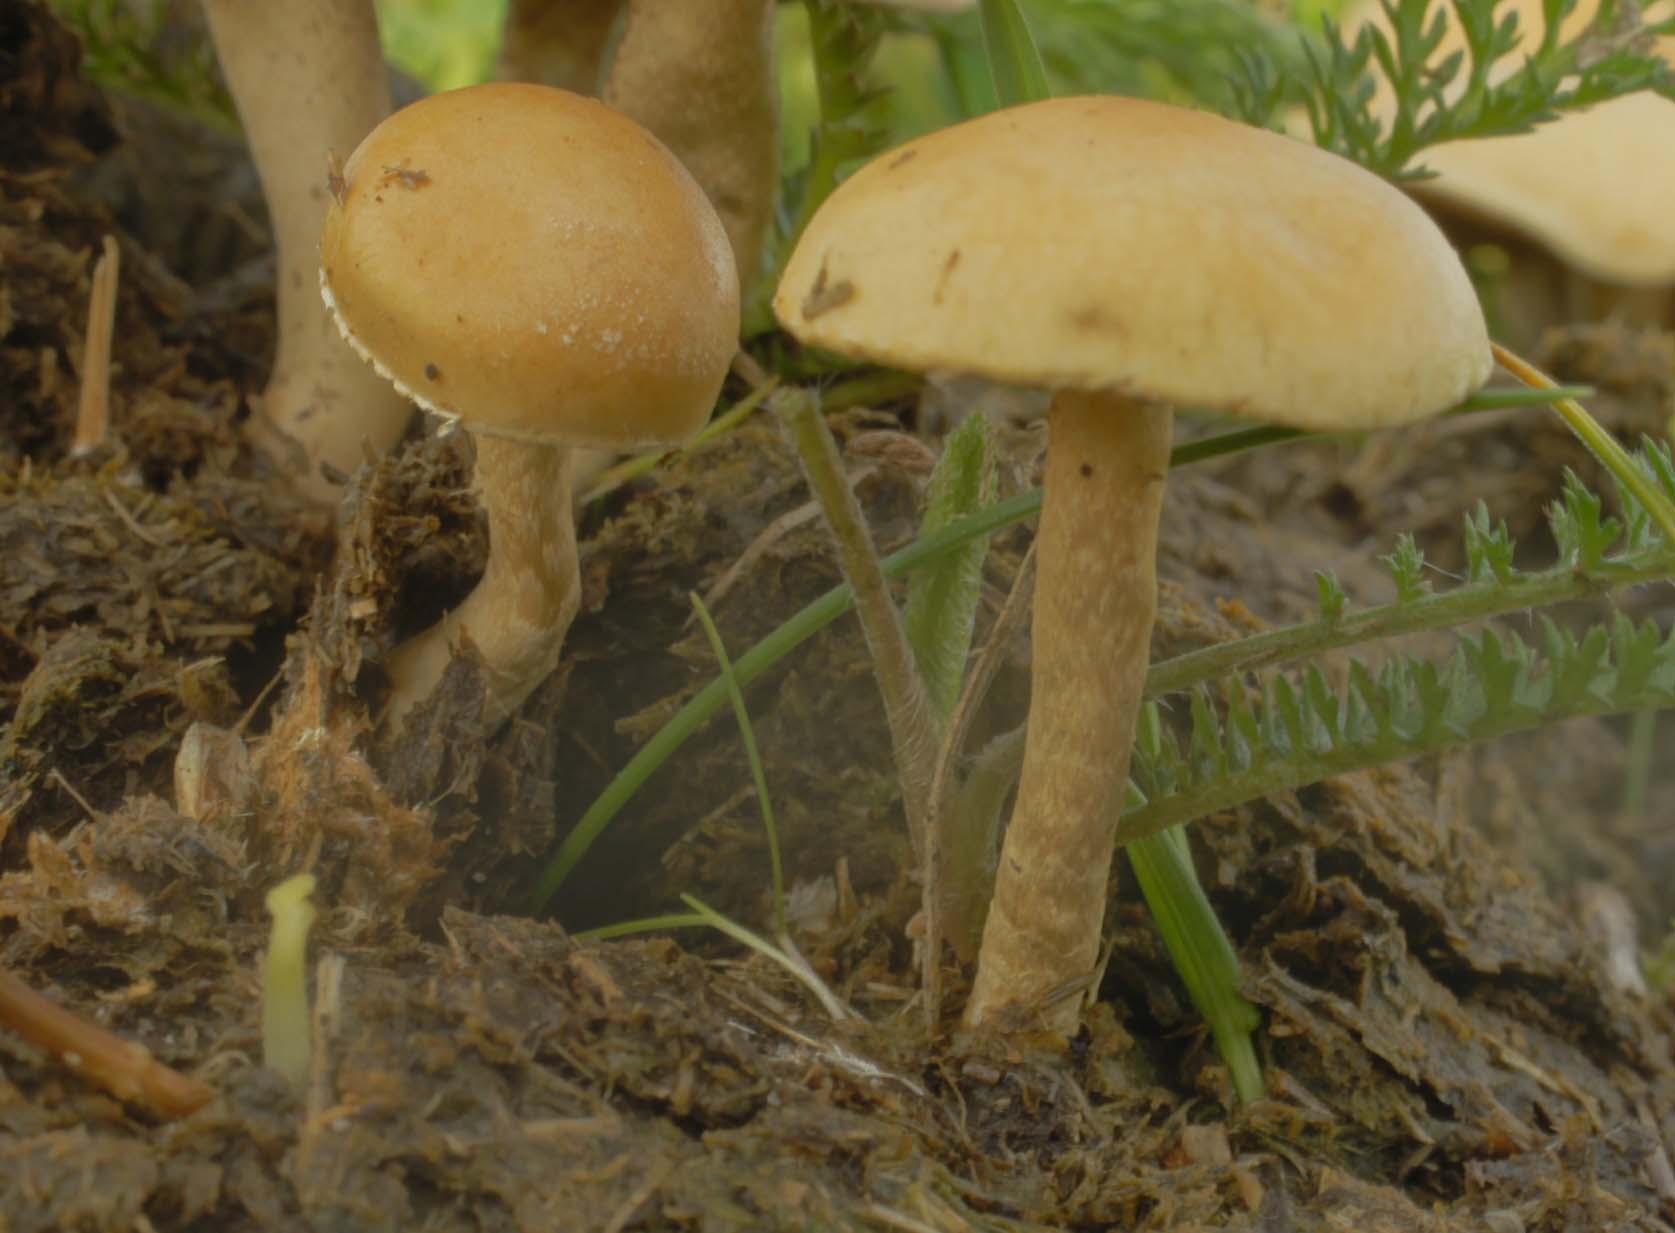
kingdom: Fungi
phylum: Basidiomycota
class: Agaricomycetes
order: Agaricales
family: Strophariaceae
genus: Deconica
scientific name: Deconica merdaria
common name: møg-stråhat
